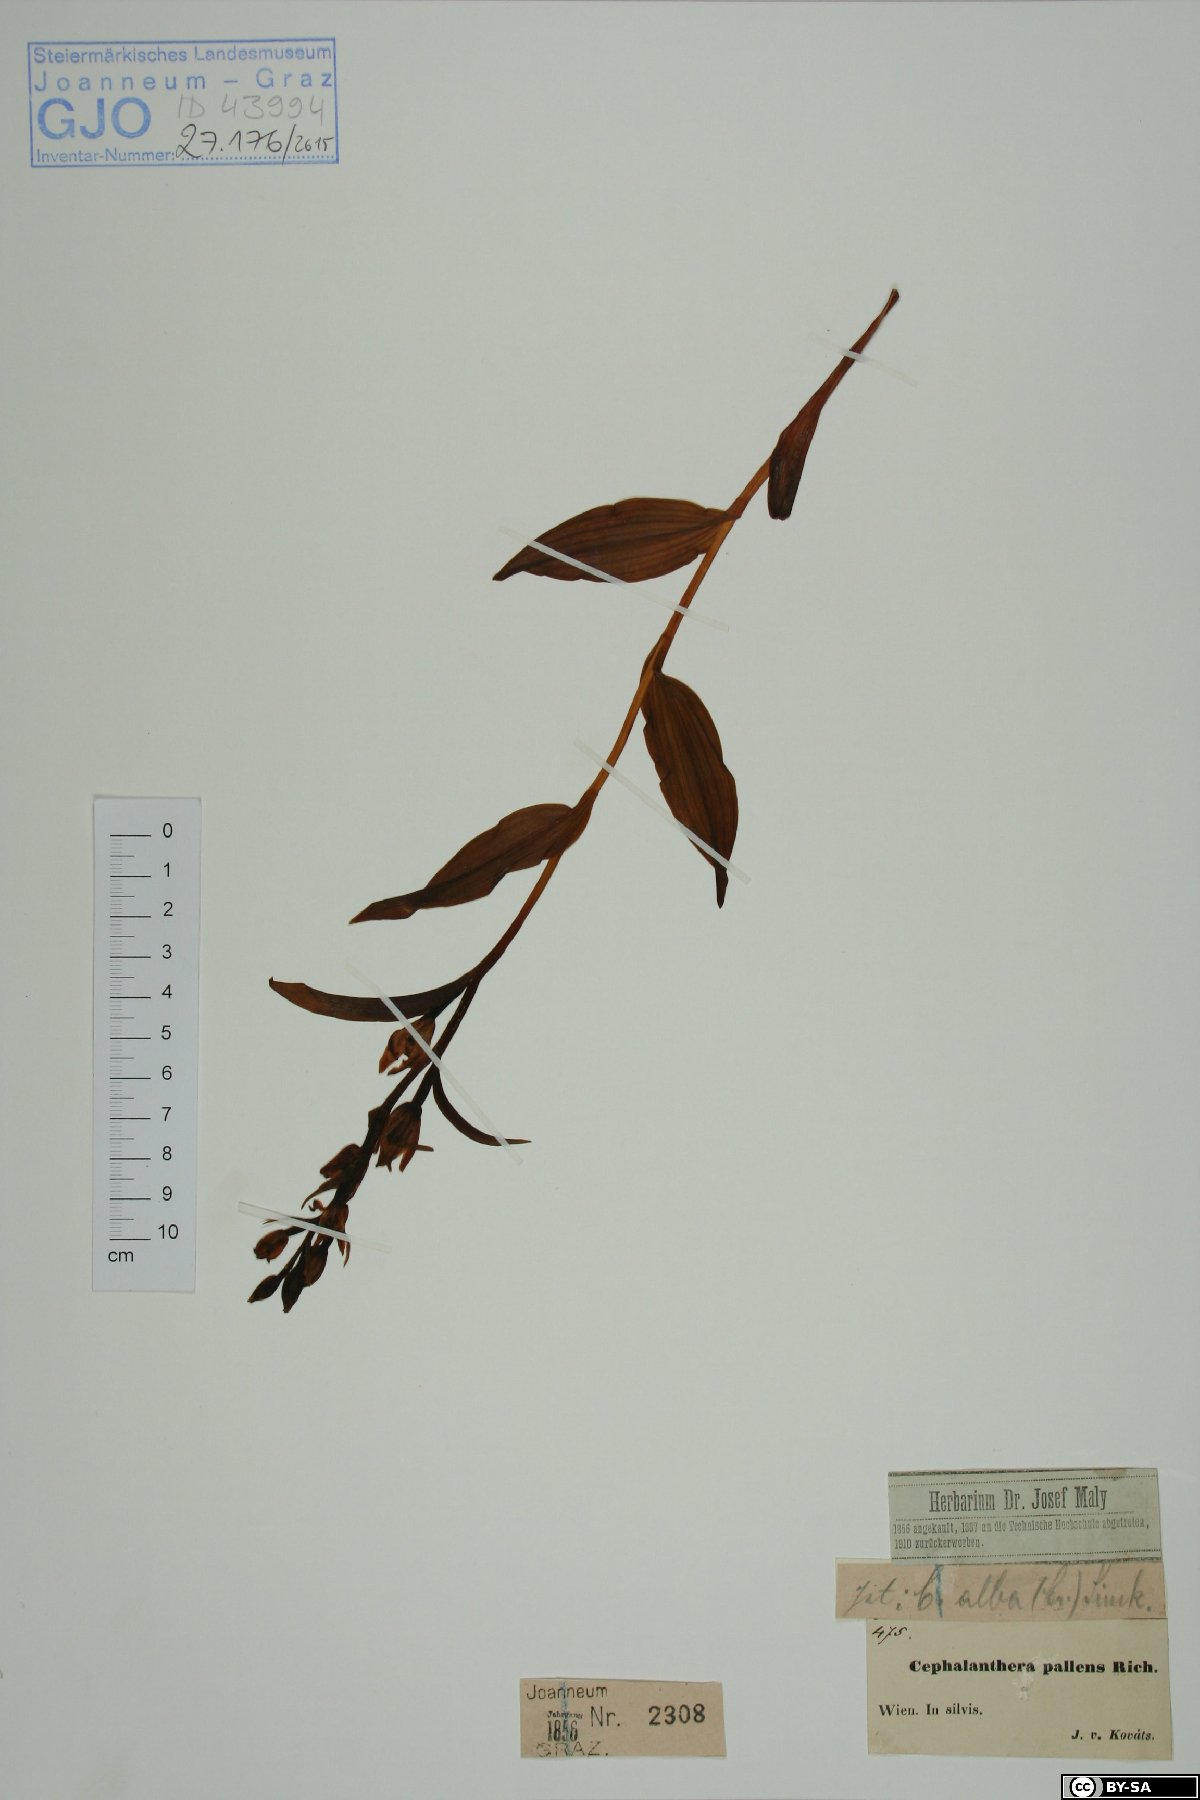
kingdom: Plantae
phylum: Tracheophyta
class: Liliopsida
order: Asparagales
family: Orchidaceae
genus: Cephalanthera
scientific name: Cephalanthera longifolia
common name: Narrow-leaved helleborine
